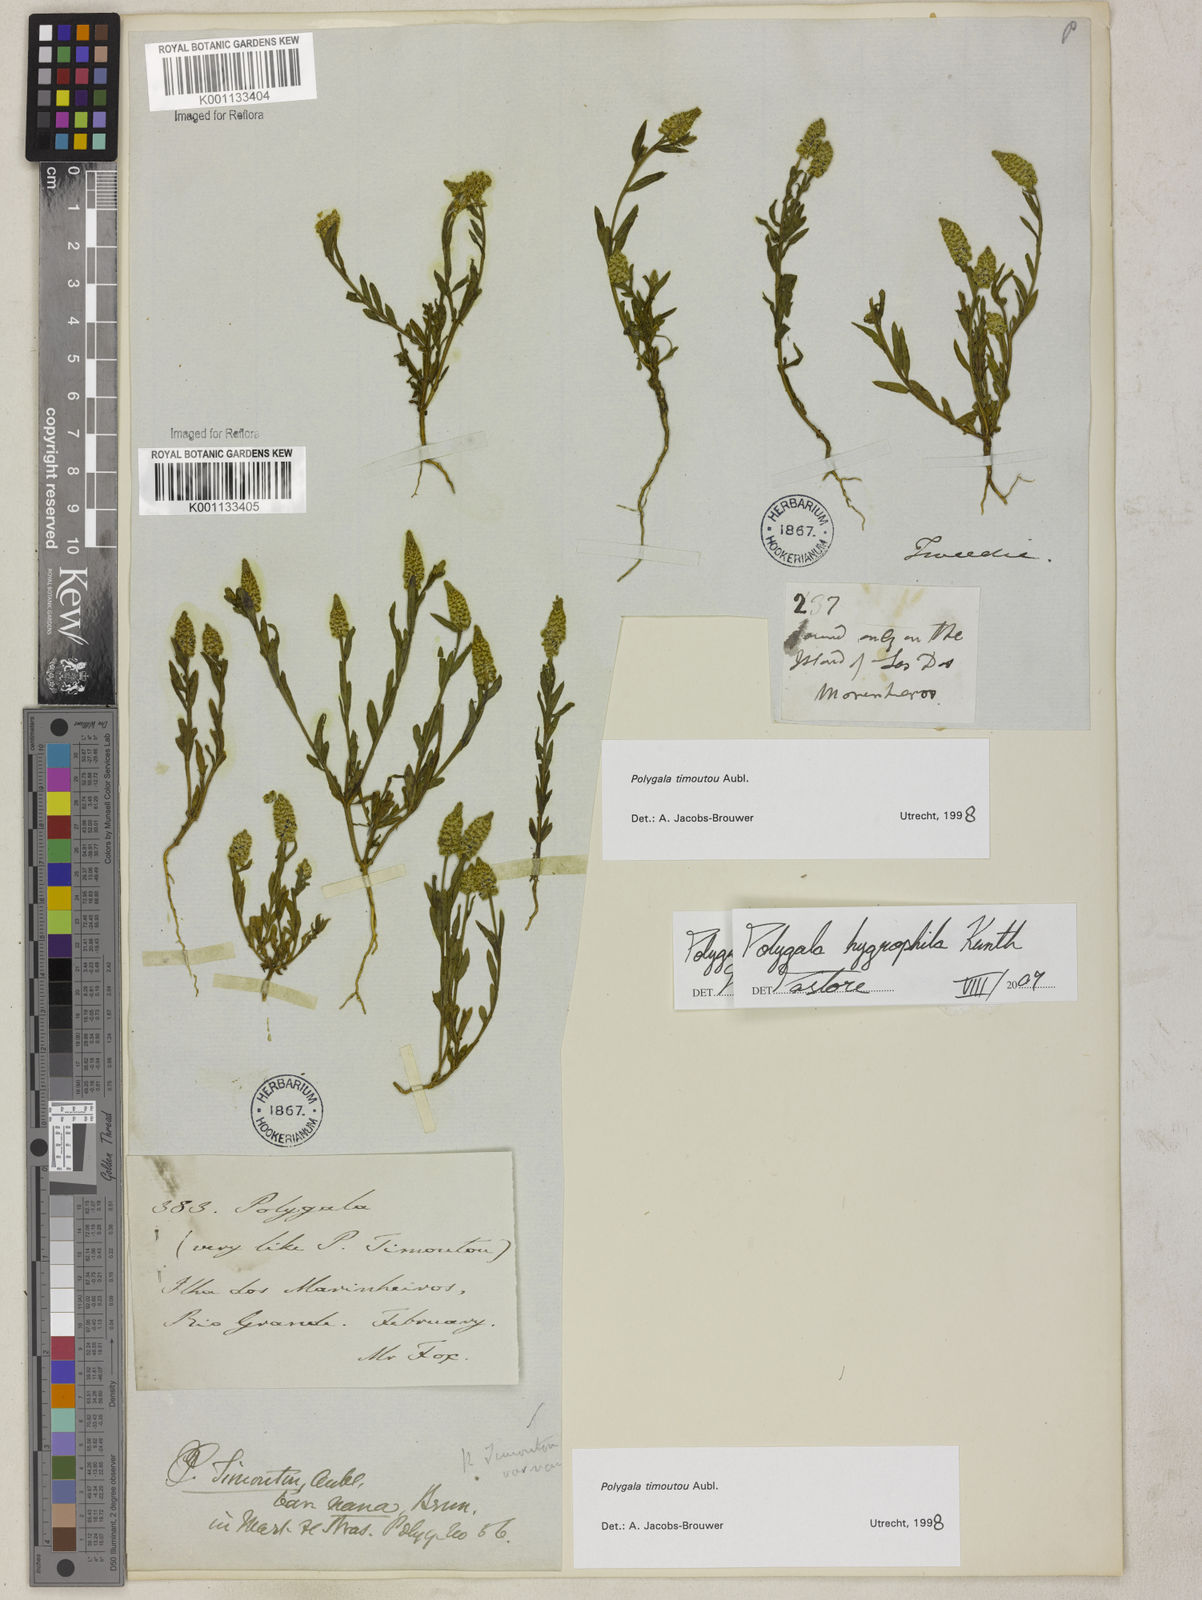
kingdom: Plantae
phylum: Tracheophyta
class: Magnoliopsida
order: Fabales
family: Polygalaceae
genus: Polygala
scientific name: Polygala hygrophila
